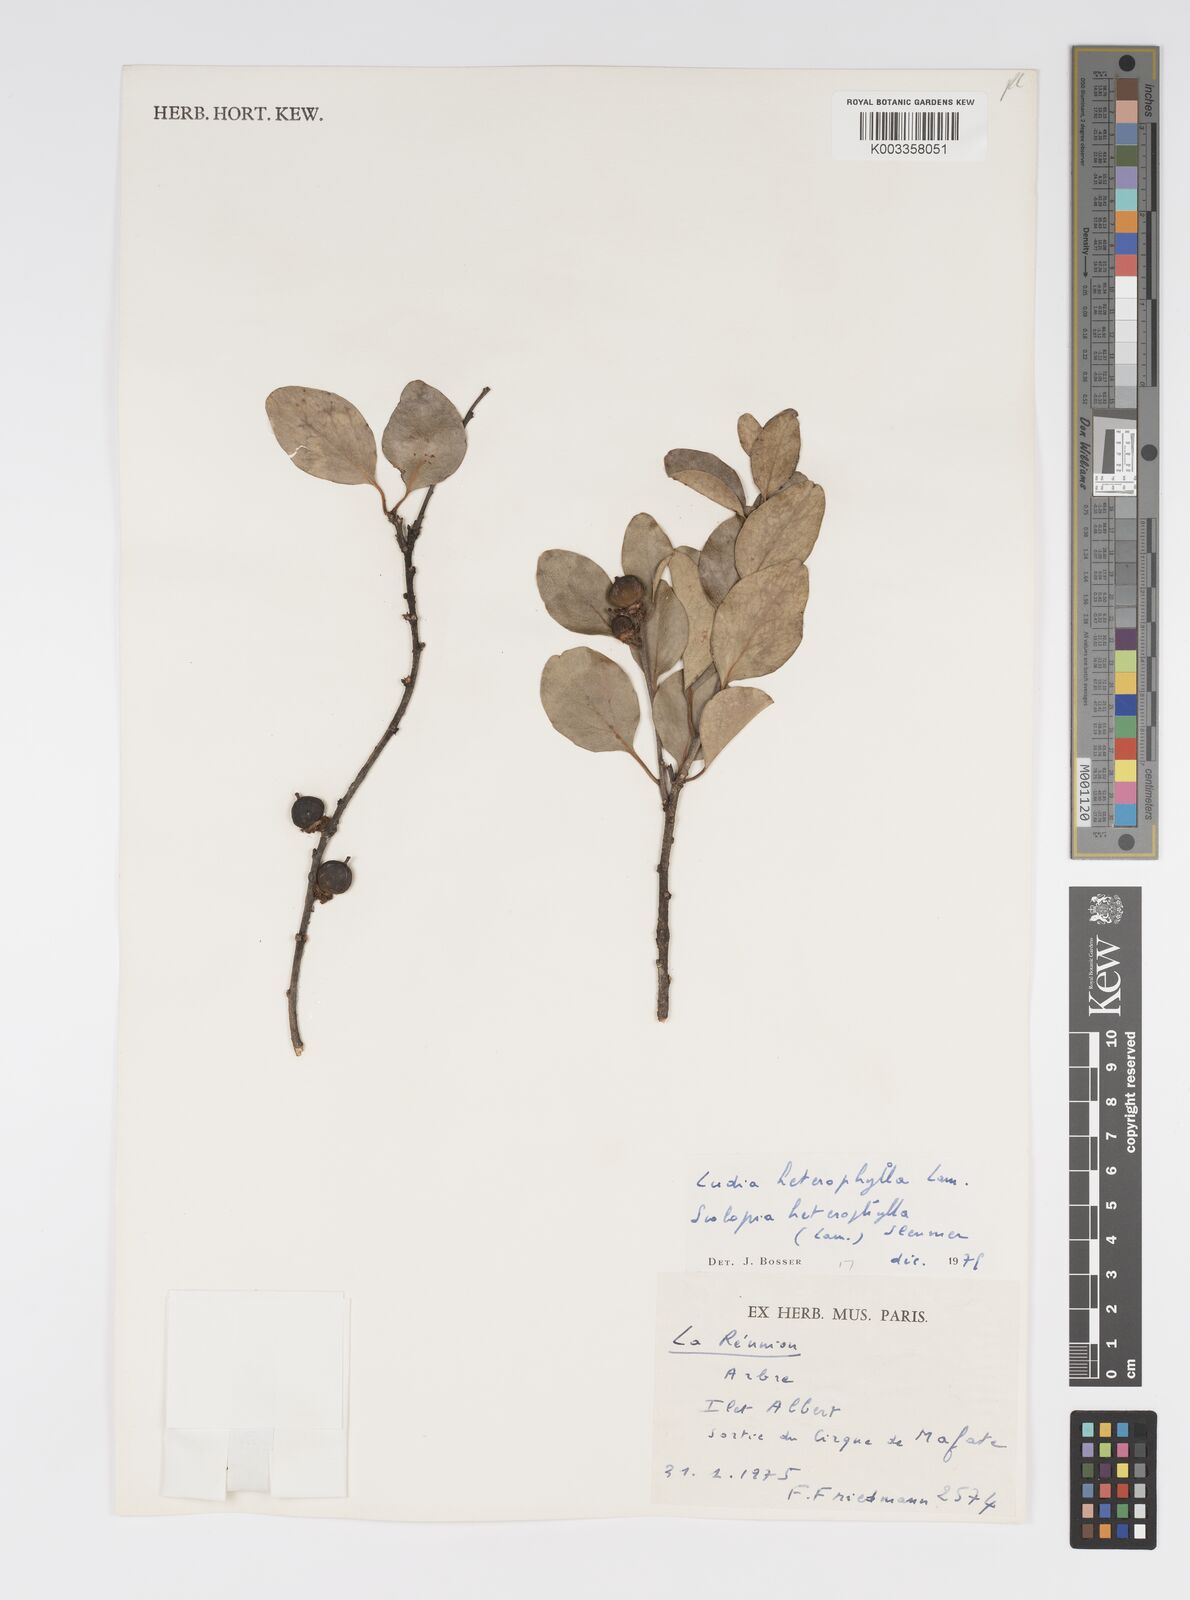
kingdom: Plantae
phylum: Tracheophyta
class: Magnoliopsida
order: Malpighiales
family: Salicaceae
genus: Scolopia
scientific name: Scolopia heterophylla
